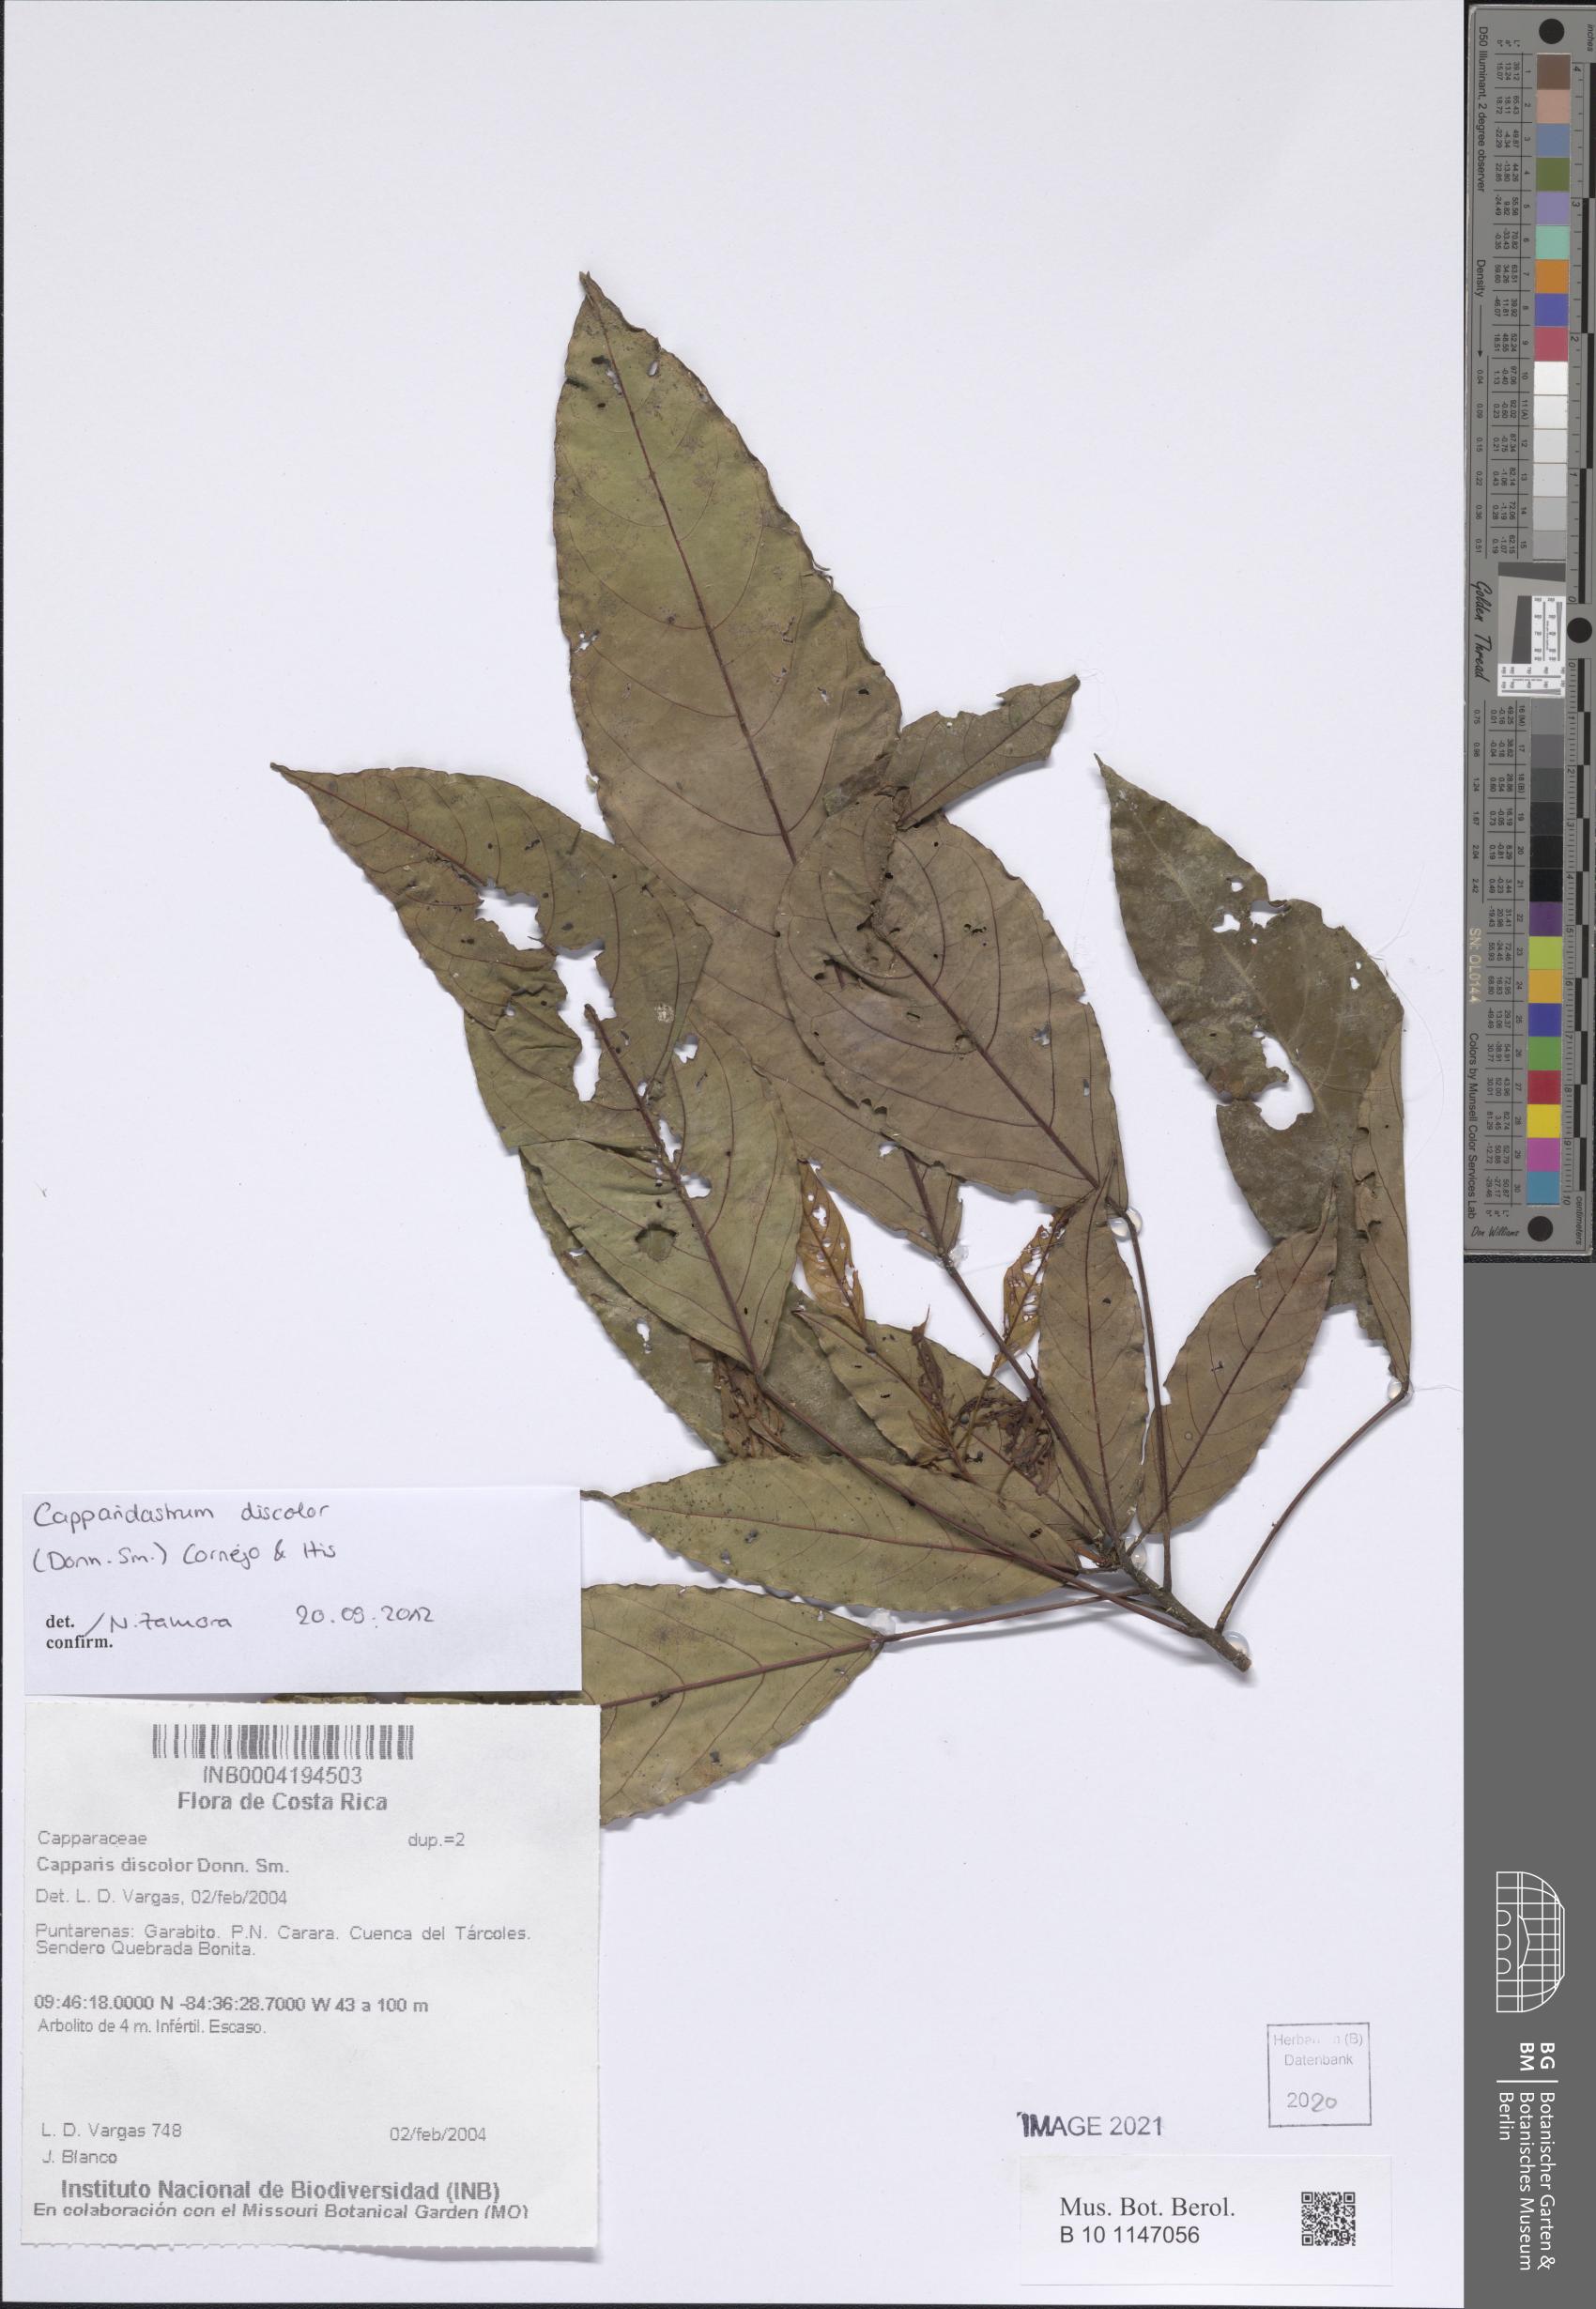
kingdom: Plantae
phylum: Tracheophyta
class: Magnoliopsida
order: Brassicales
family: Capparaceae
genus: Capparidastrum
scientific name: Capparidastrum discolor
